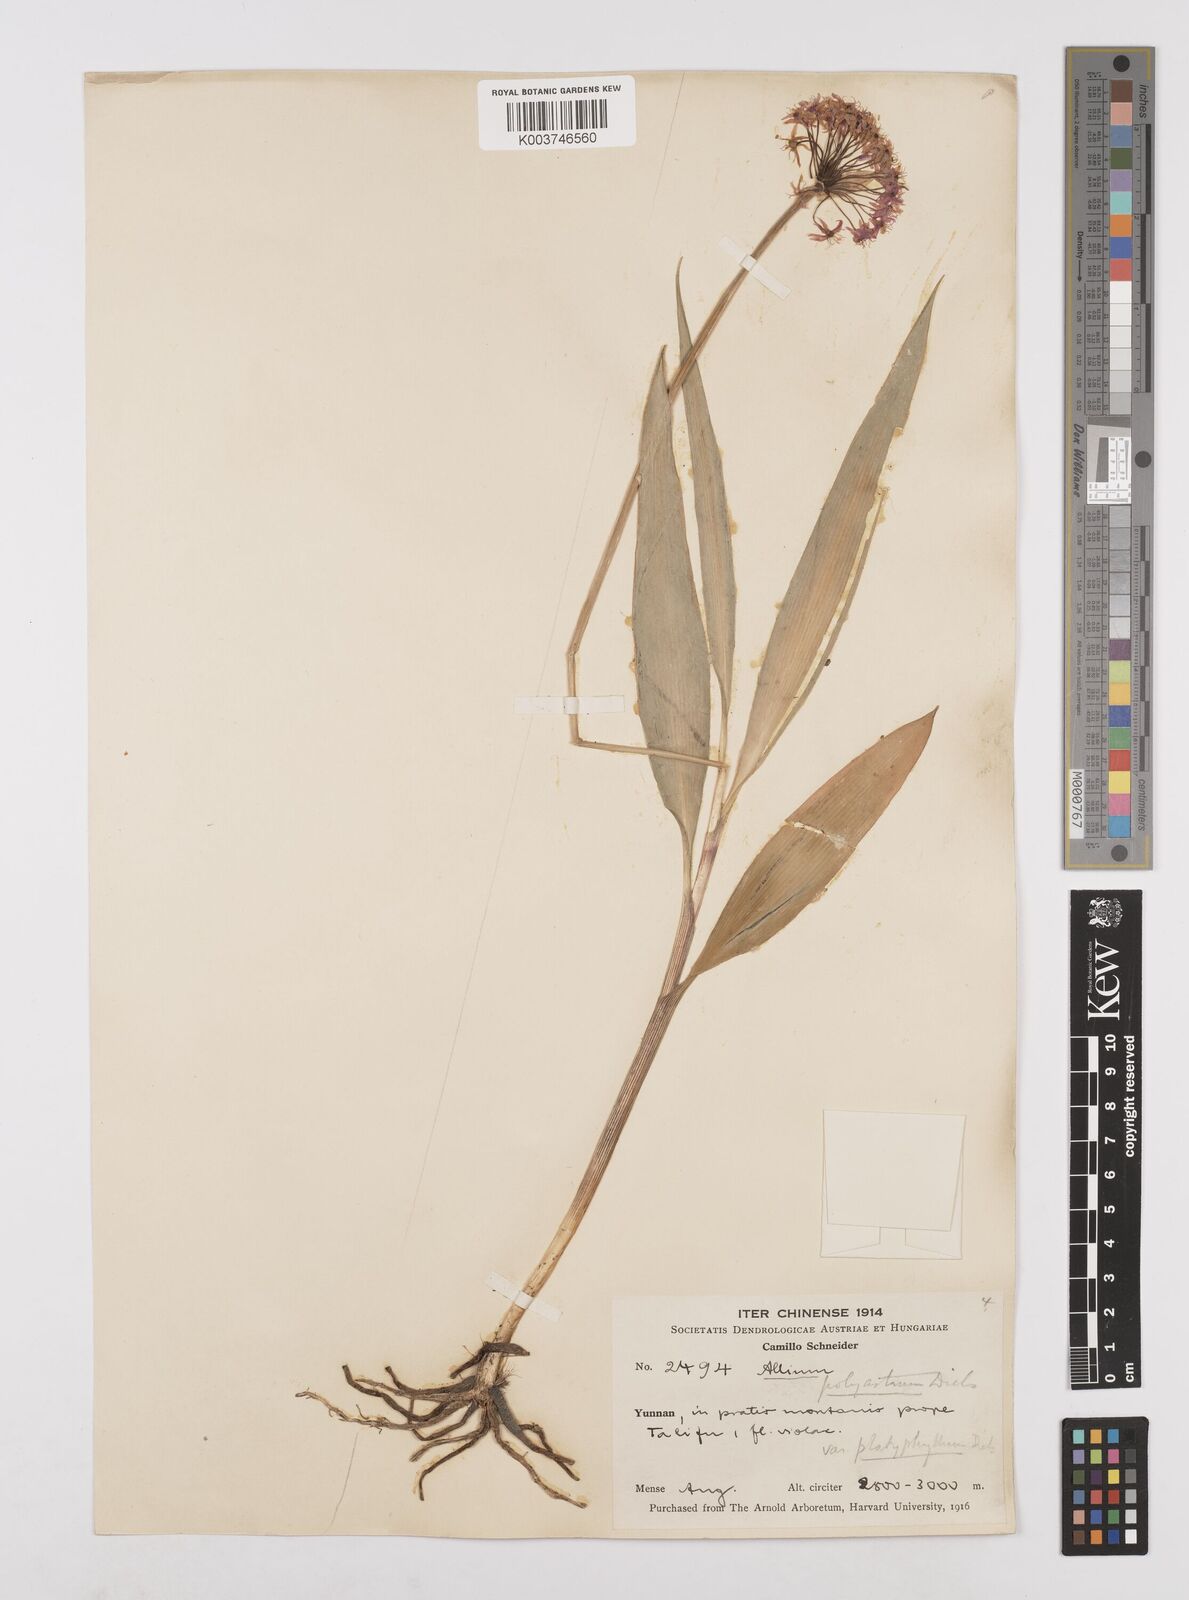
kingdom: Plantae
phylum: Tracheophyta
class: Liliopsida
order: Asparagales
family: Amaryllidaceae
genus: Allium
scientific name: Allium wallichii
